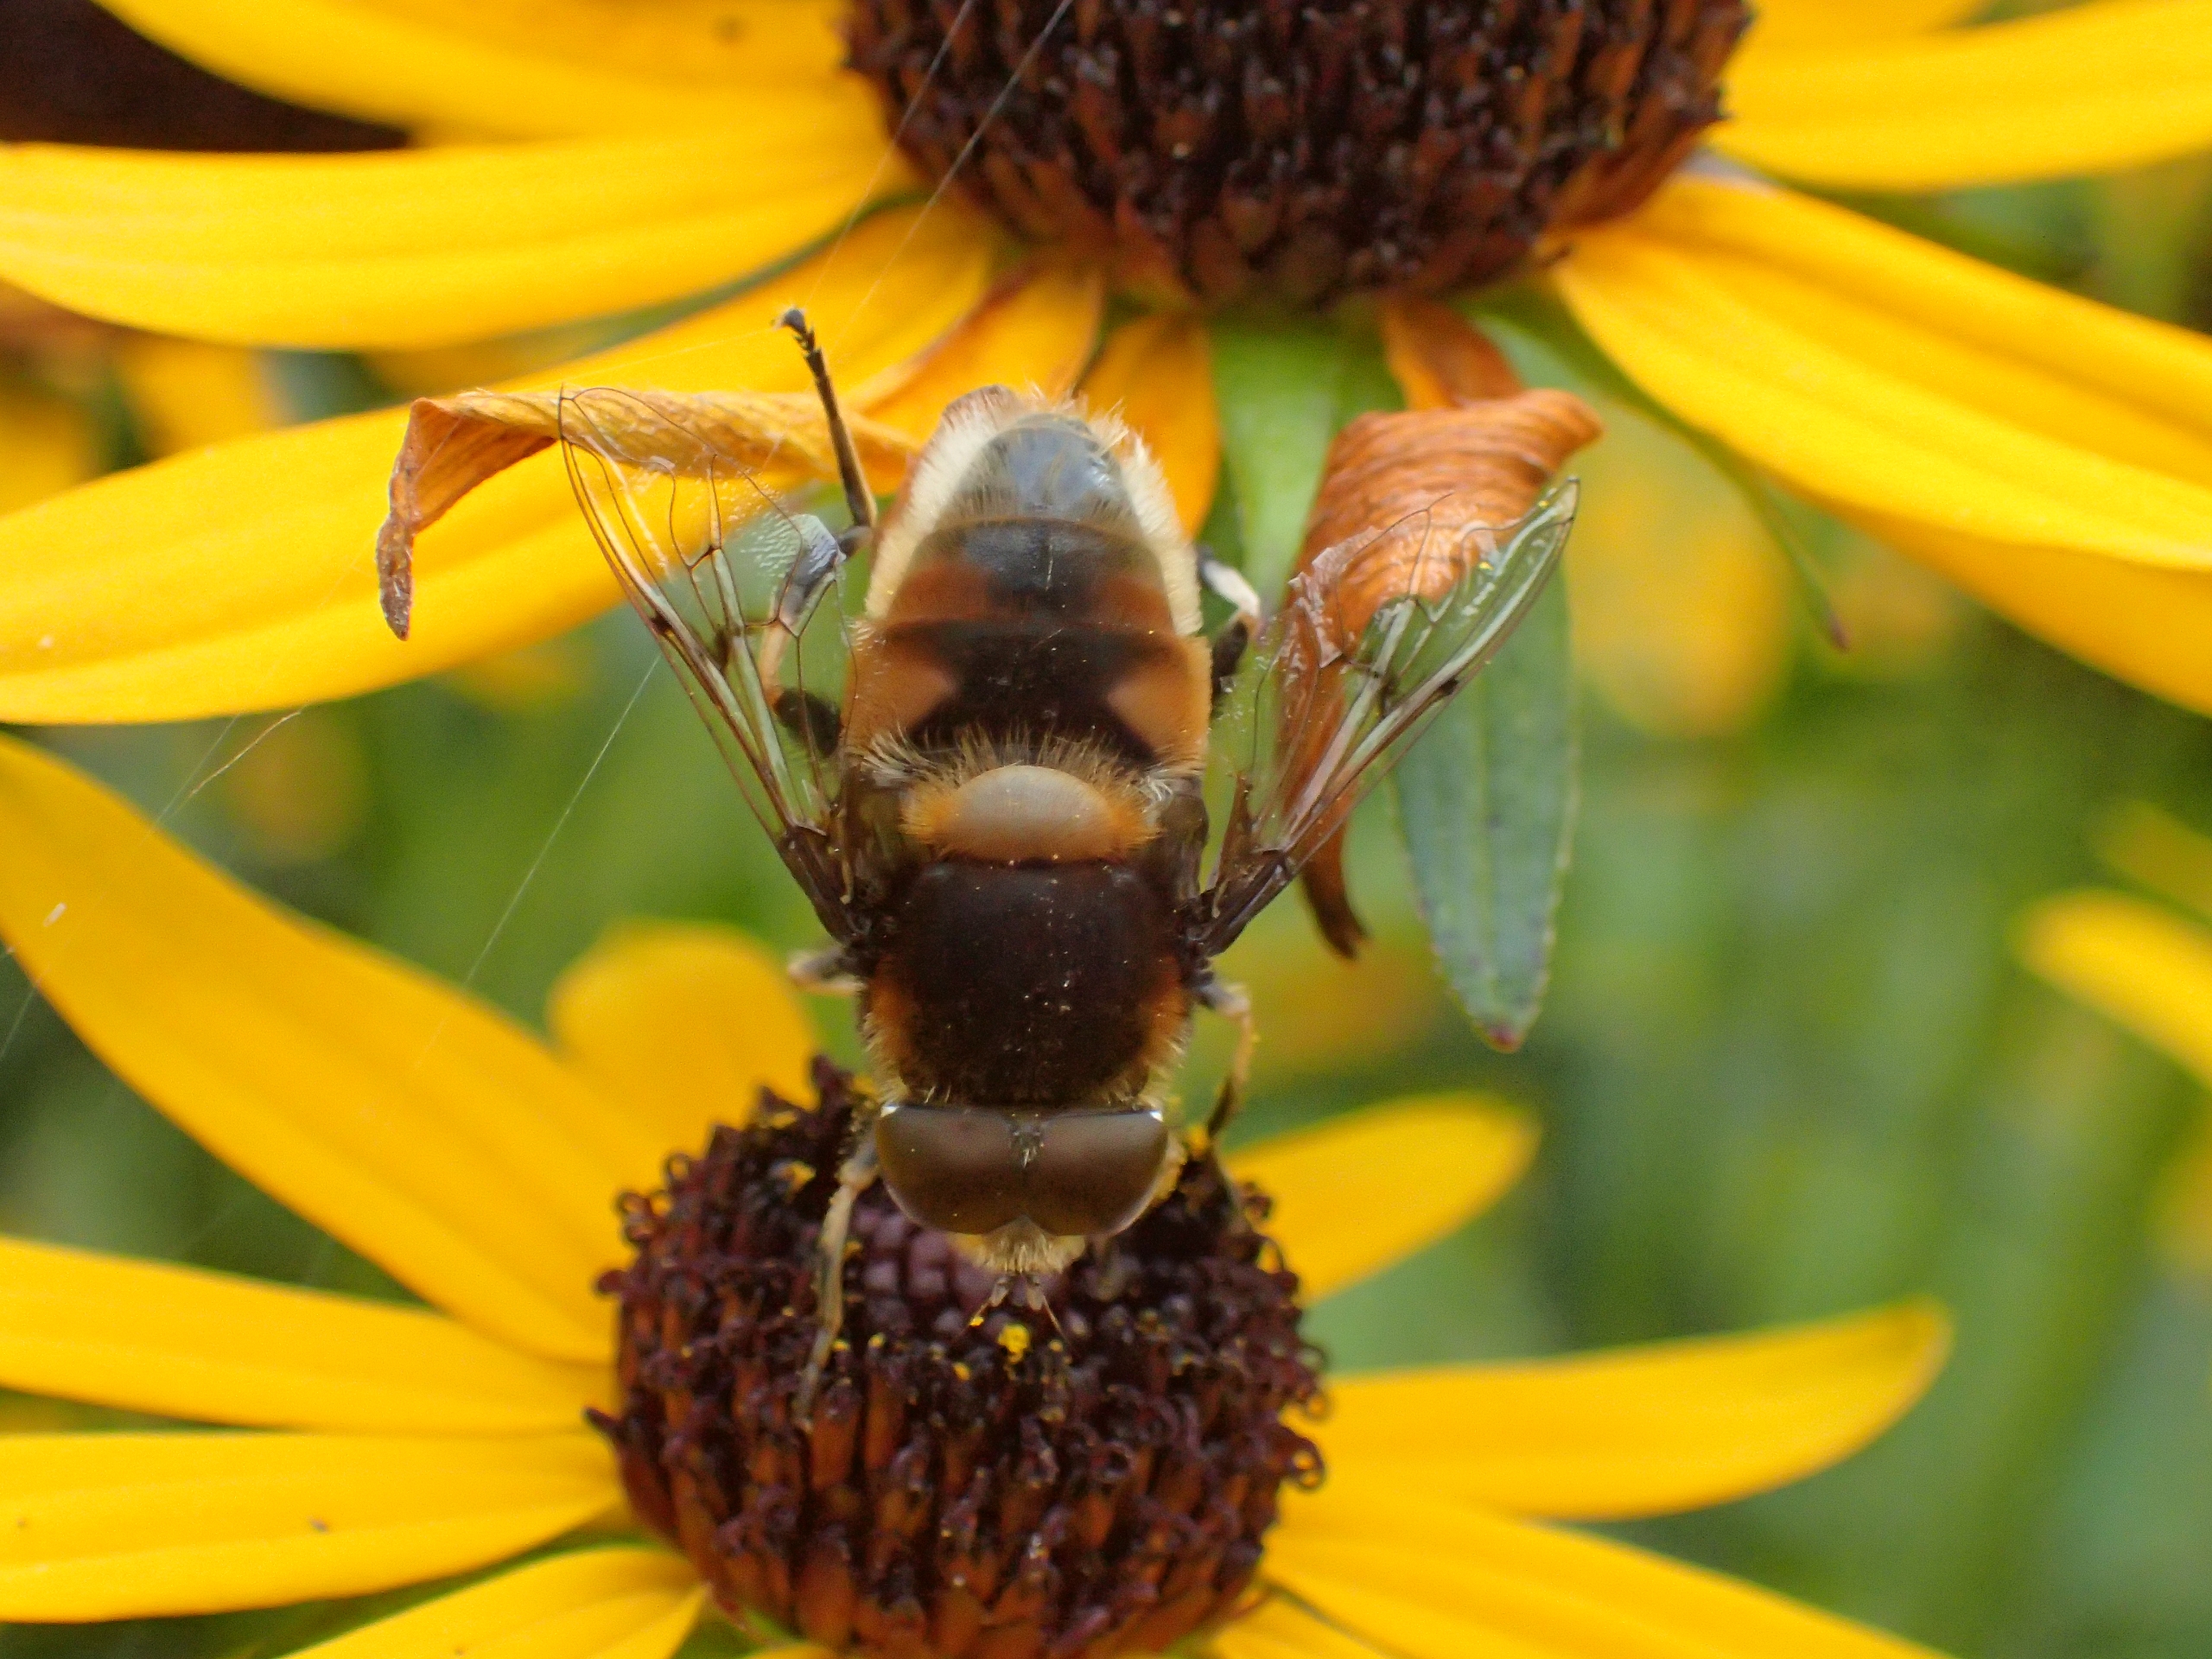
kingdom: Animalia
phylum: Arthropoda
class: Insecta
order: Diptera
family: Syrphidae
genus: Eristalis
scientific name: Eristalis intricaria
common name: Håret dyndflue
